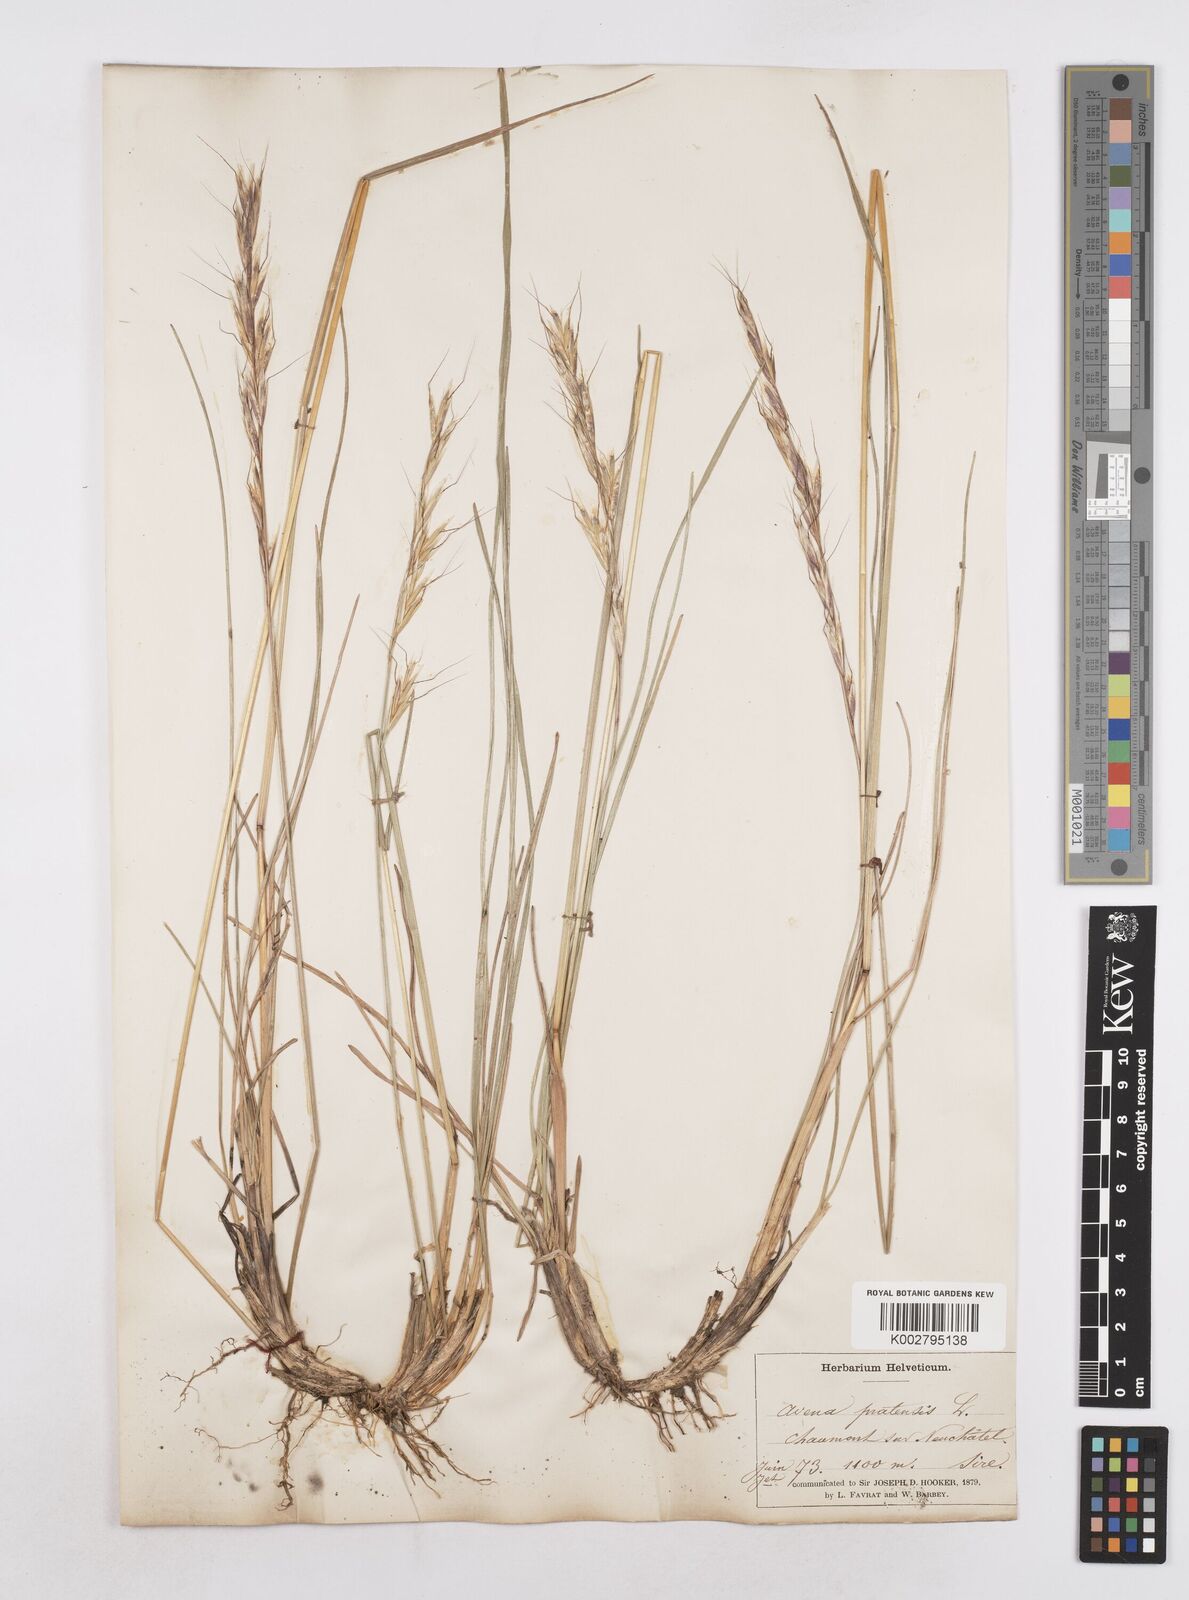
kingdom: Plantae
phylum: Tracheophyta
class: Liliopsida
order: Poales
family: Poaceae
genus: Helictochloa
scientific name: Helictochloa pratensis
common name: Meadow oat grass
